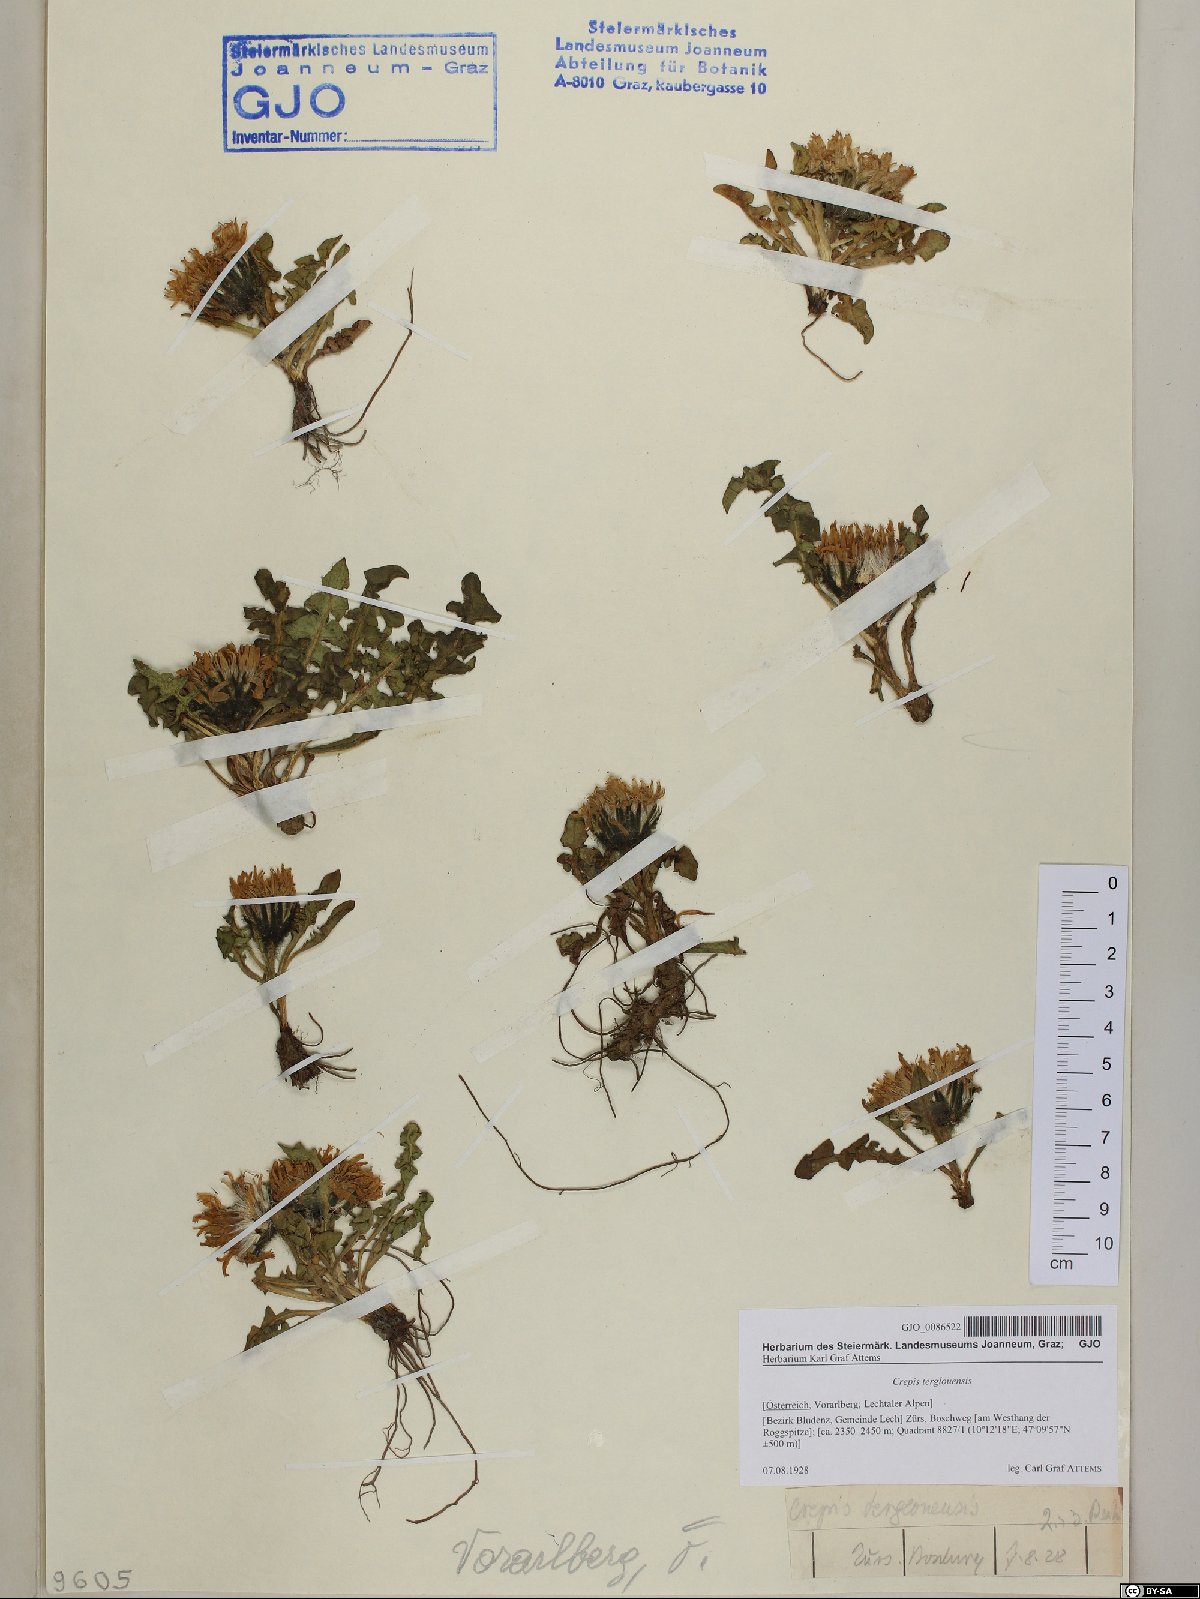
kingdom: Plantae
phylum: Tracheophyta
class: Magnoliopsida
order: Asterales
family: Asteraceae
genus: Crepis
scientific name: Crepis terglouensis
